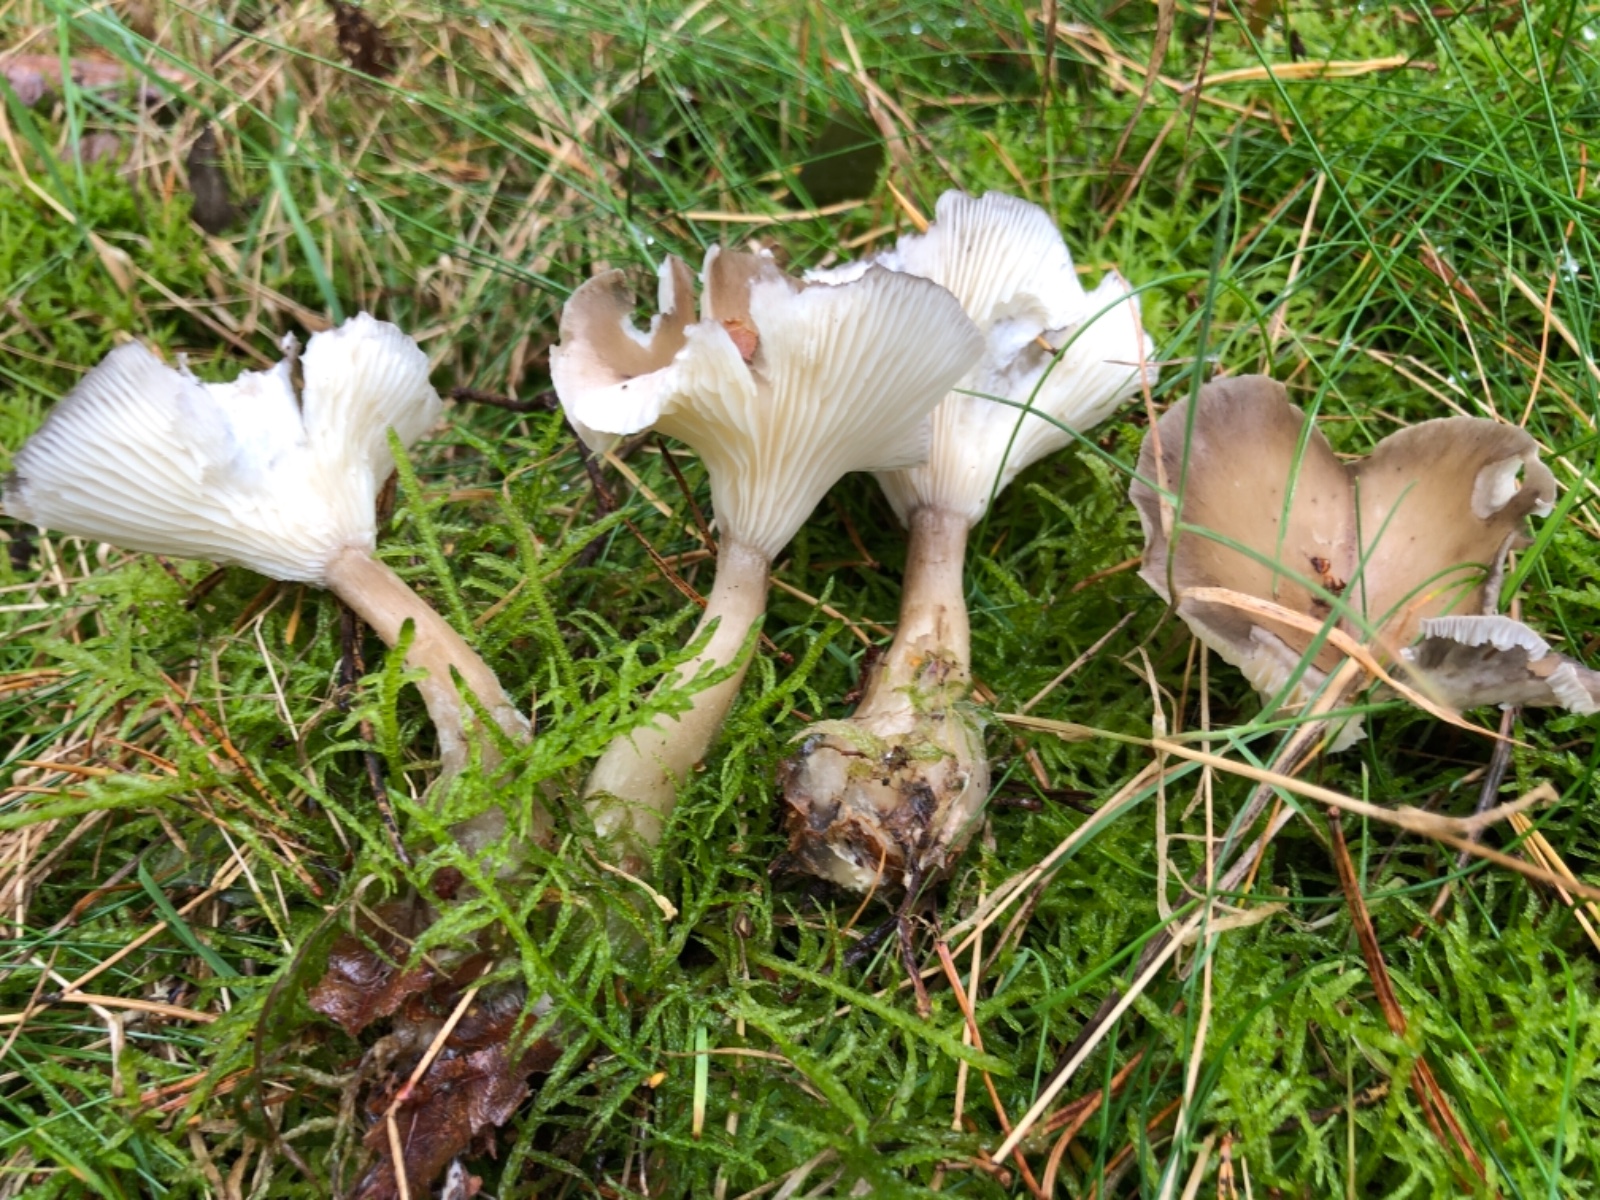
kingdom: Fungi
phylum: Basidiomycota
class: Agaricomycetes
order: Agaricales
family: Hygrophoraceae
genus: Ampulloclitocybe
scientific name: Ampulloclitocybe clavipes
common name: køllefod
